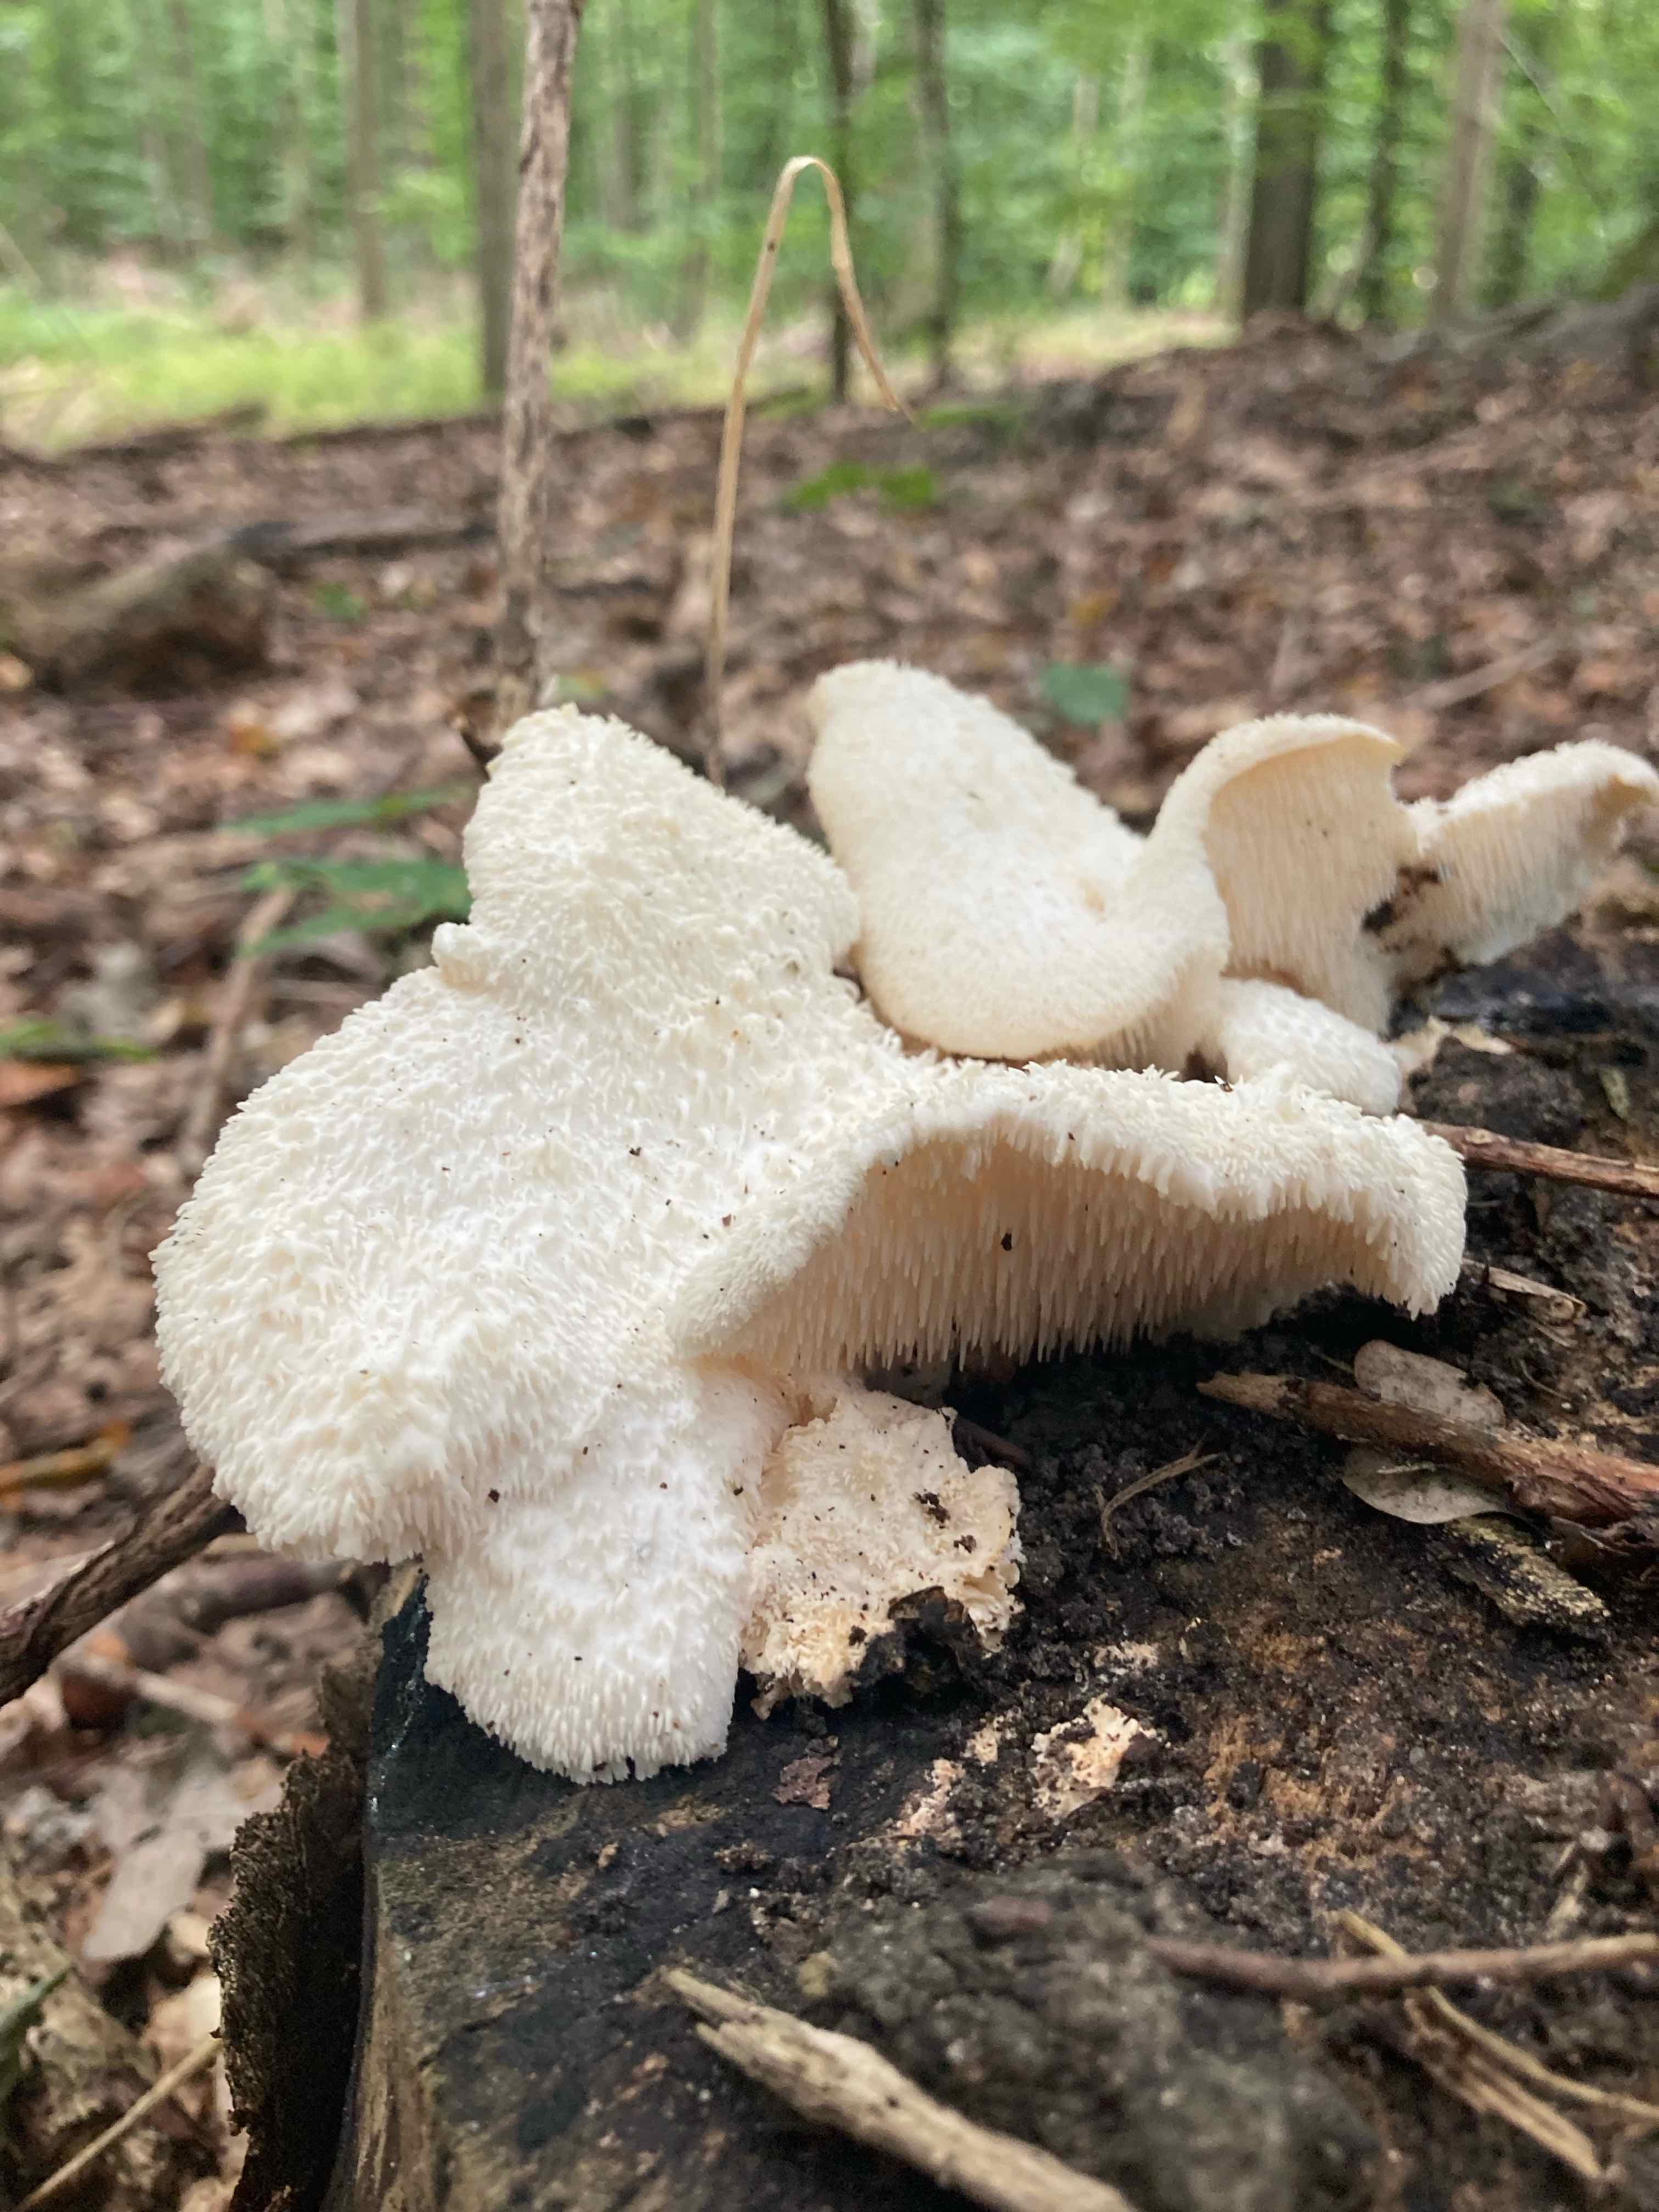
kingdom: Fungi
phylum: Basidiomycota
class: Agaricomycetes
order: Russulales
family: Hericiaceae
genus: Hericium
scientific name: Hericium cirrhatum
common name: børstepigsvamp
